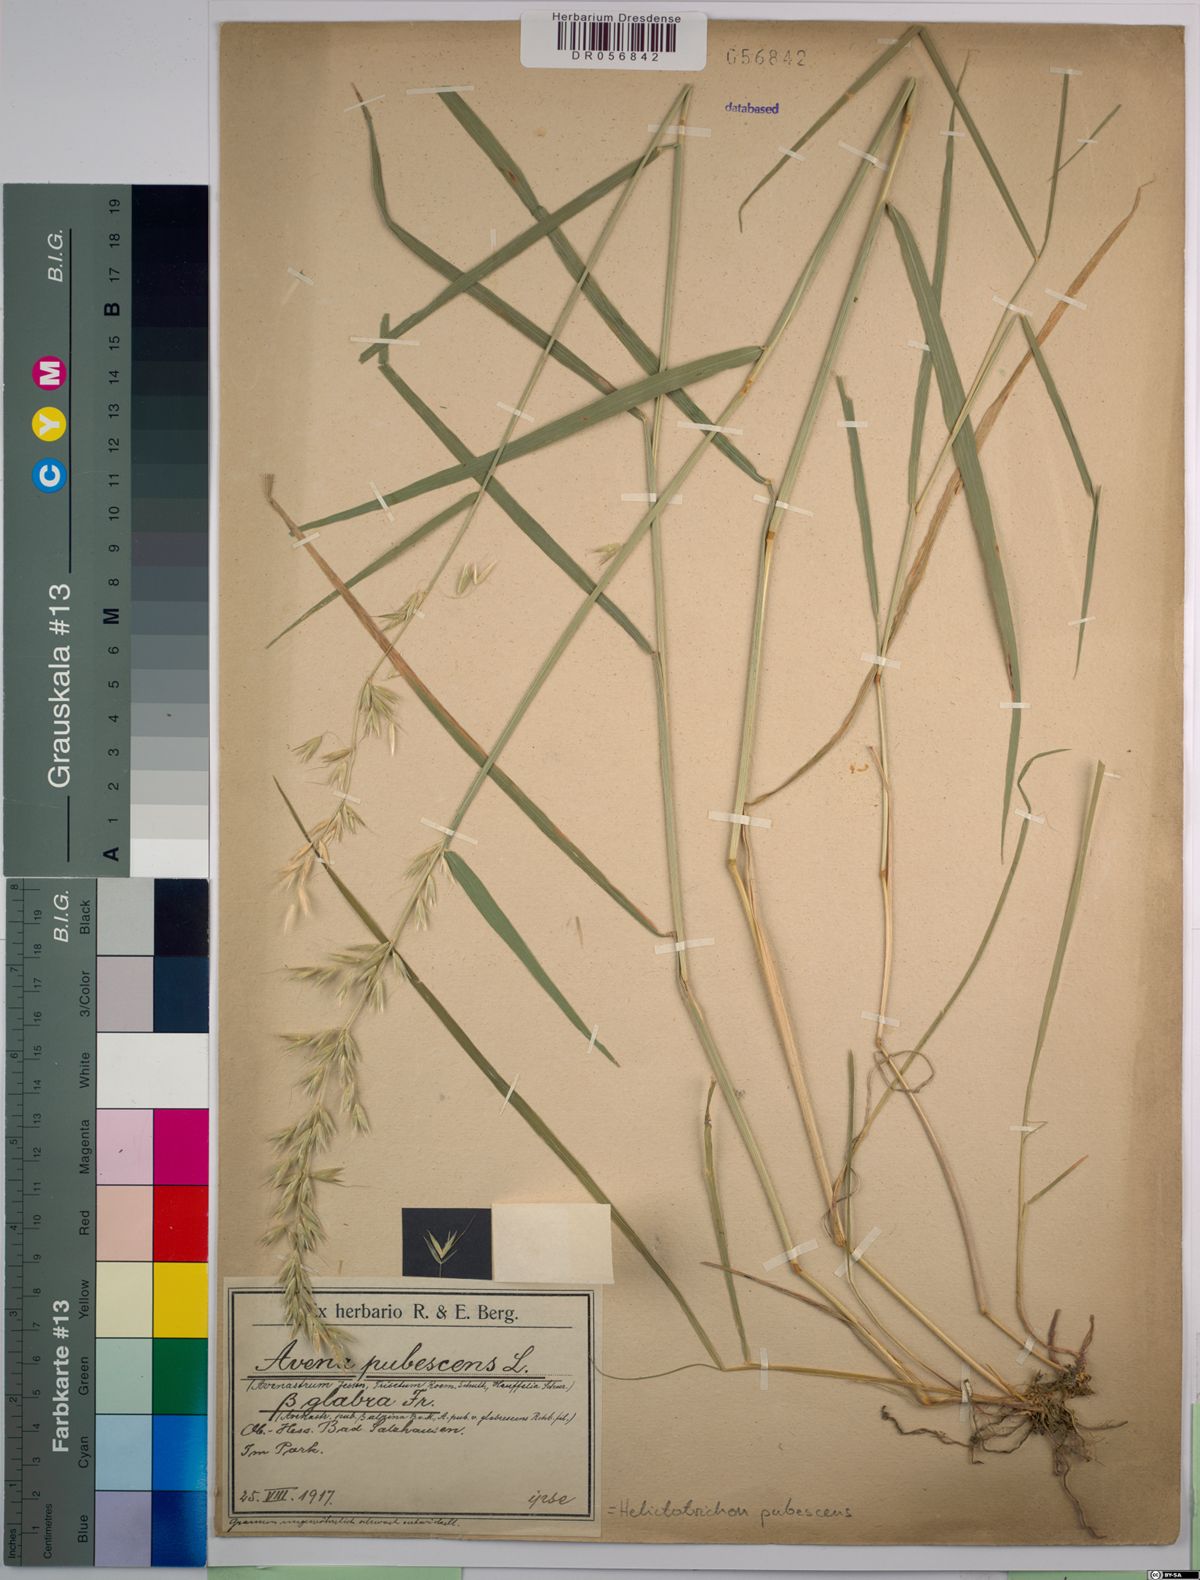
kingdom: Plantae
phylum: Tracheophyta
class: Liliopsida
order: Poales
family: Poaceae
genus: Avenula
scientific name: Avenula pubescens
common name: Downy alpine oatgrass
